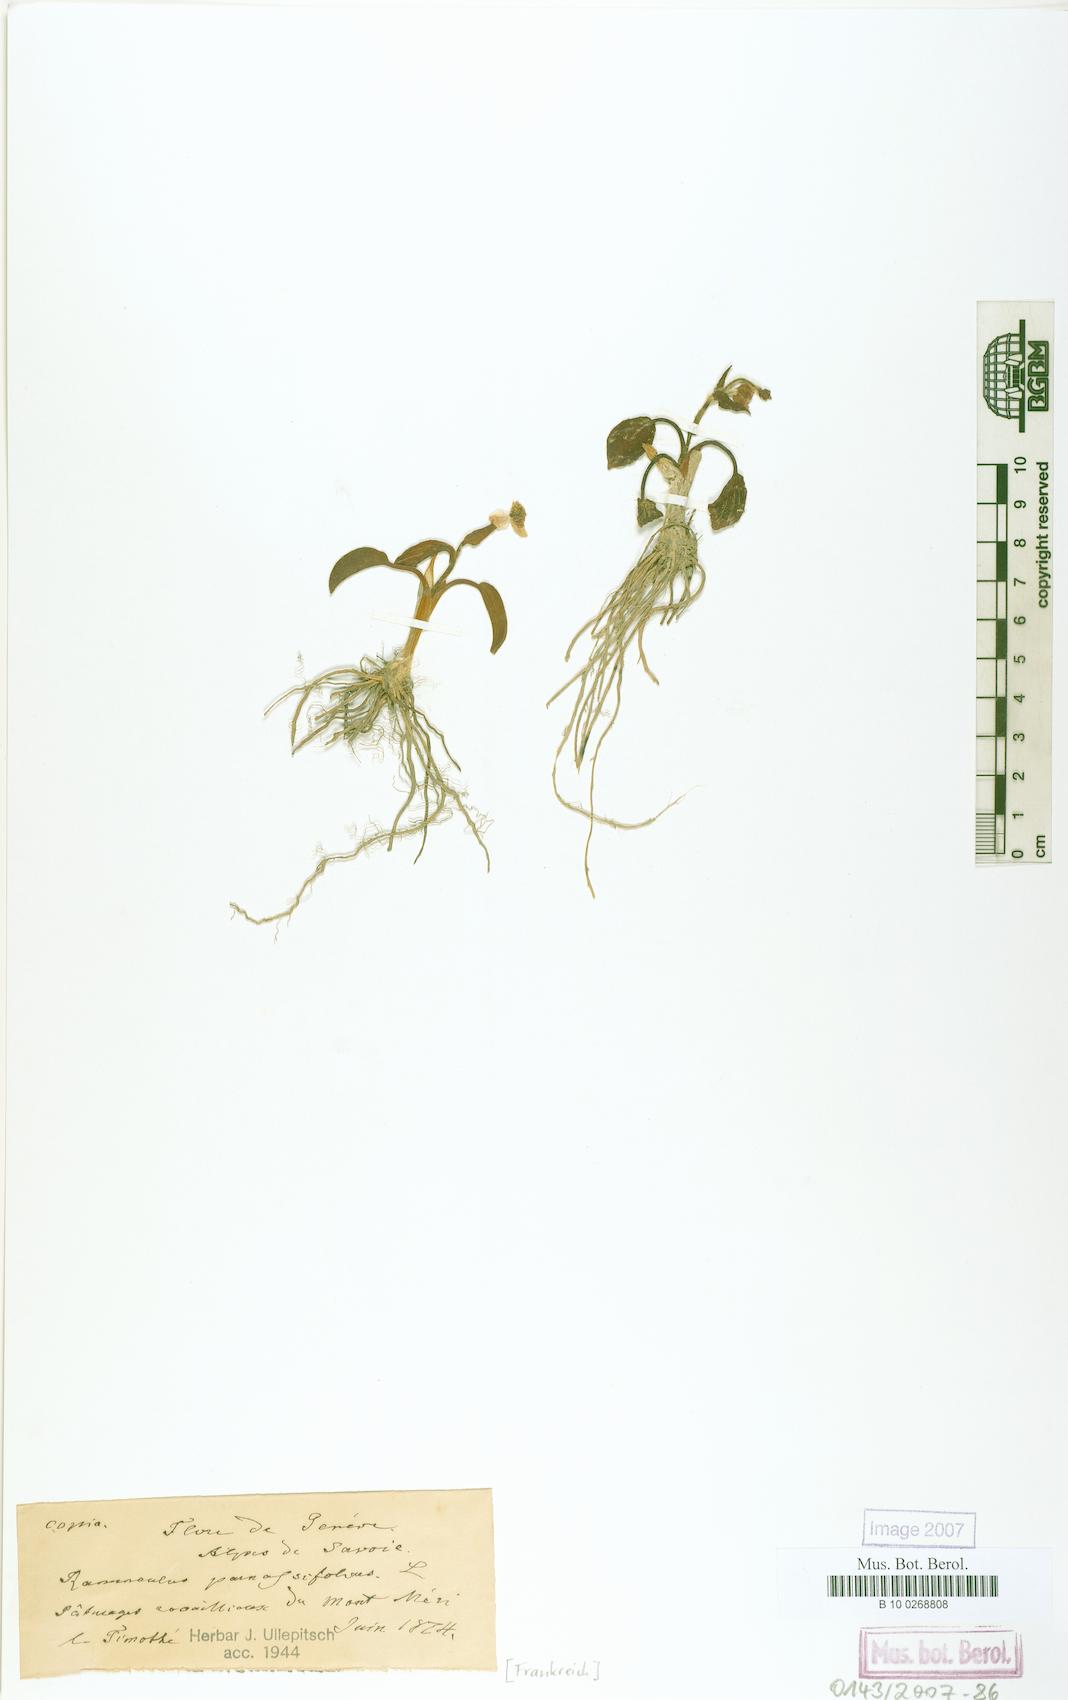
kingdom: Plantae
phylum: Tracheophyta
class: Magnoliopsida
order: Ranunculales
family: Ranunculaceae
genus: Ranunculus
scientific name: Ranunculus parnassiifolius
